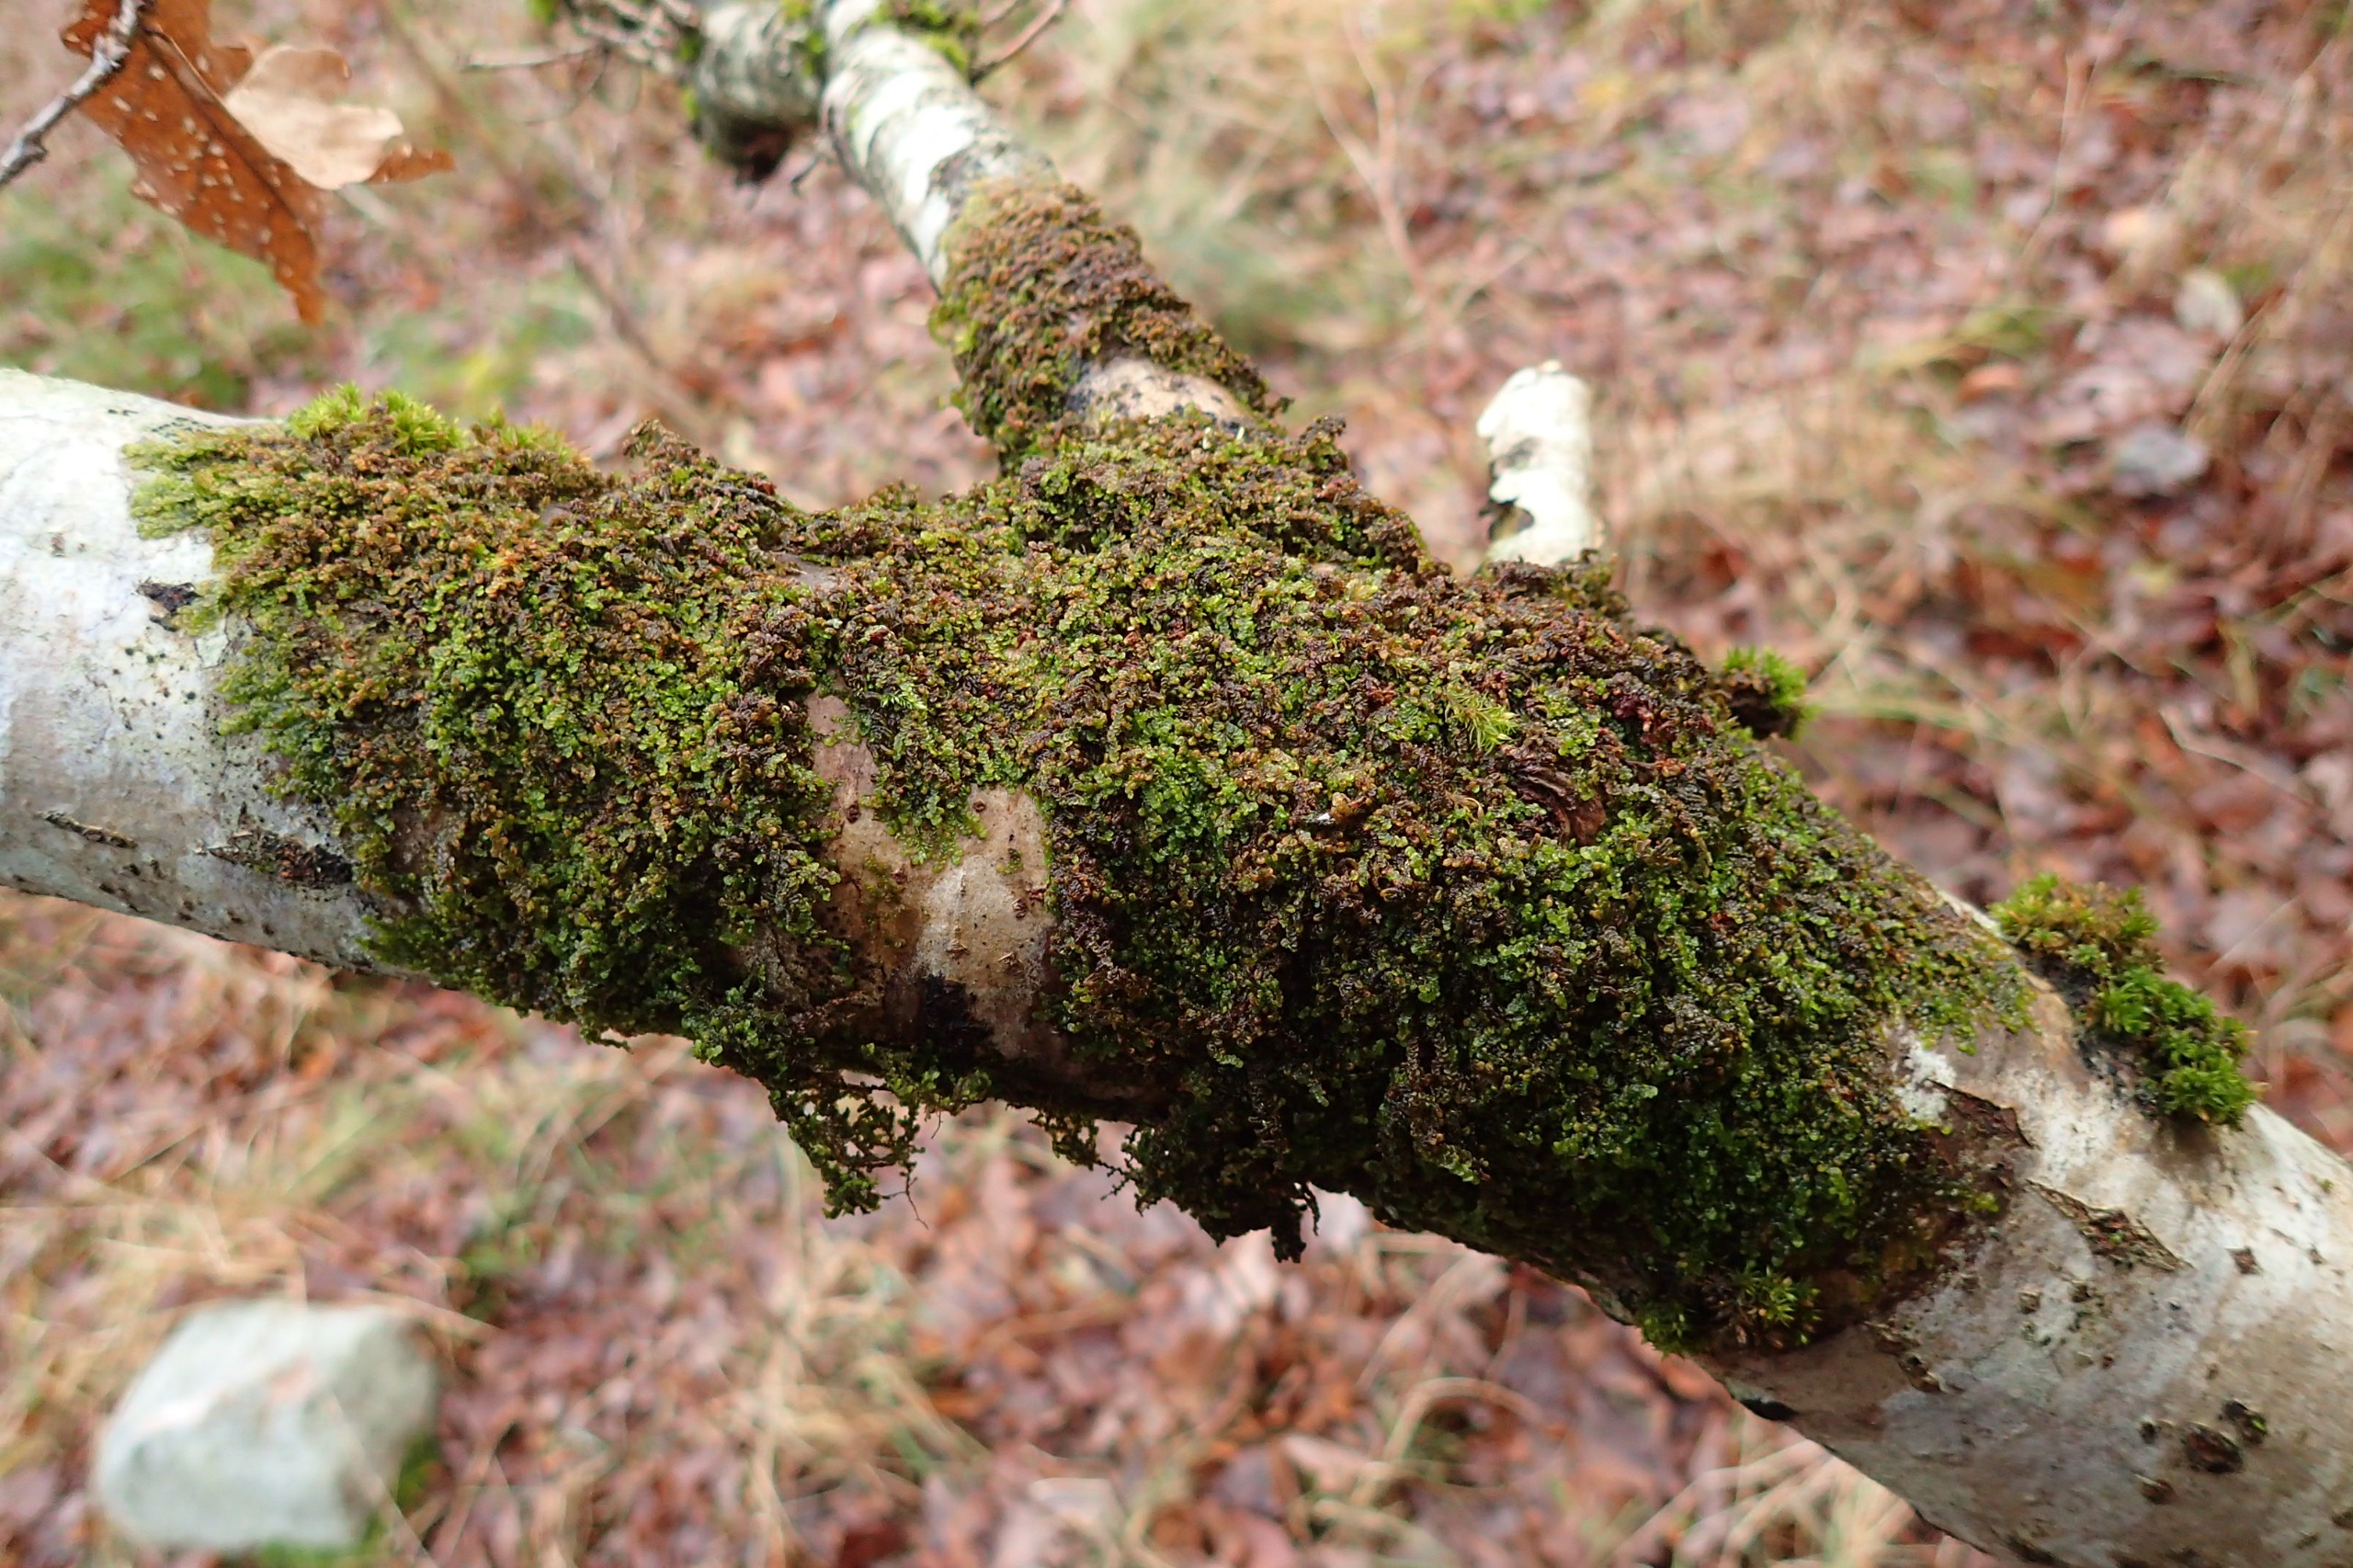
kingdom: Plantae
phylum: Marchantiophyta
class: Jungermanniopsida
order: Porellales
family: Frullaniaceae
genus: Frullania
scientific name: Frullania dilatata
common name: Mat bronzemos
